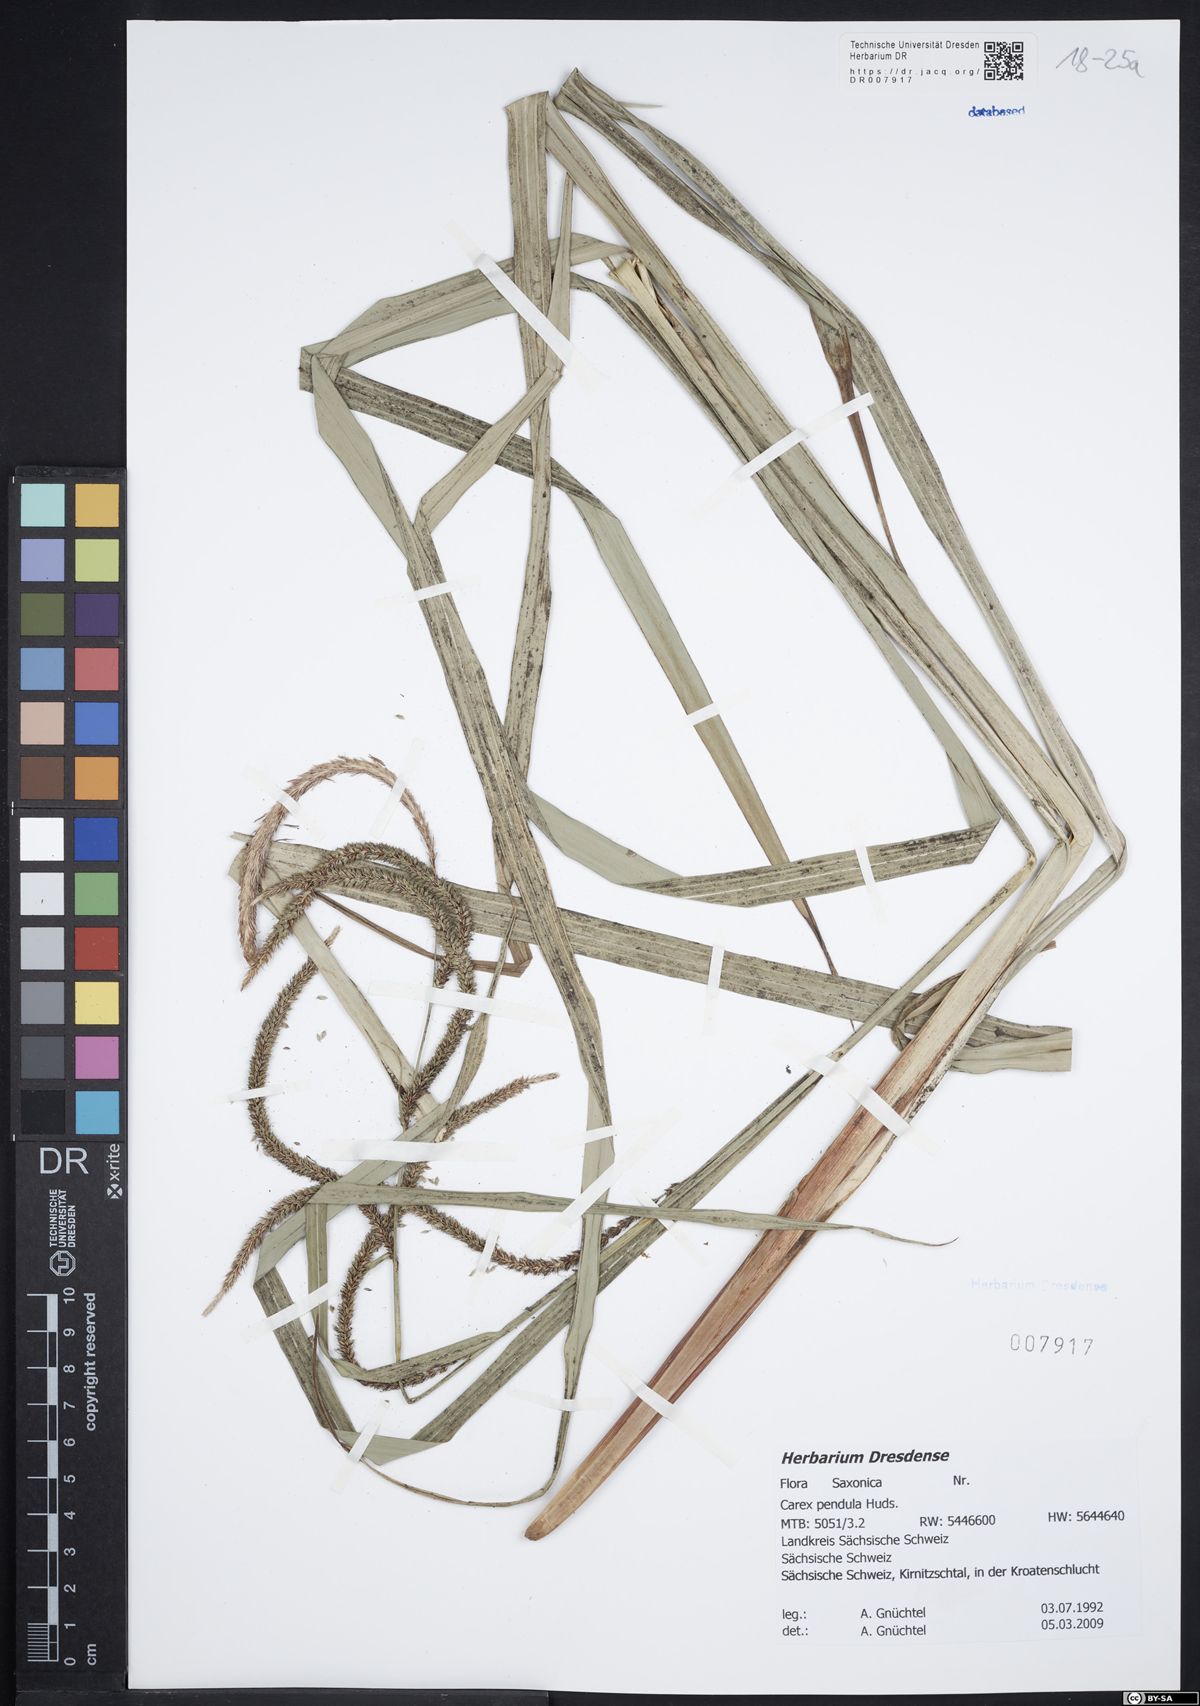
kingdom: Plantae
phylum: Tracheophyta
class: Liliopsida
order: Poales
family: Cyperaceae
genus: Carex
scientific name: Carex pendula
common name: Pendulous sedge
